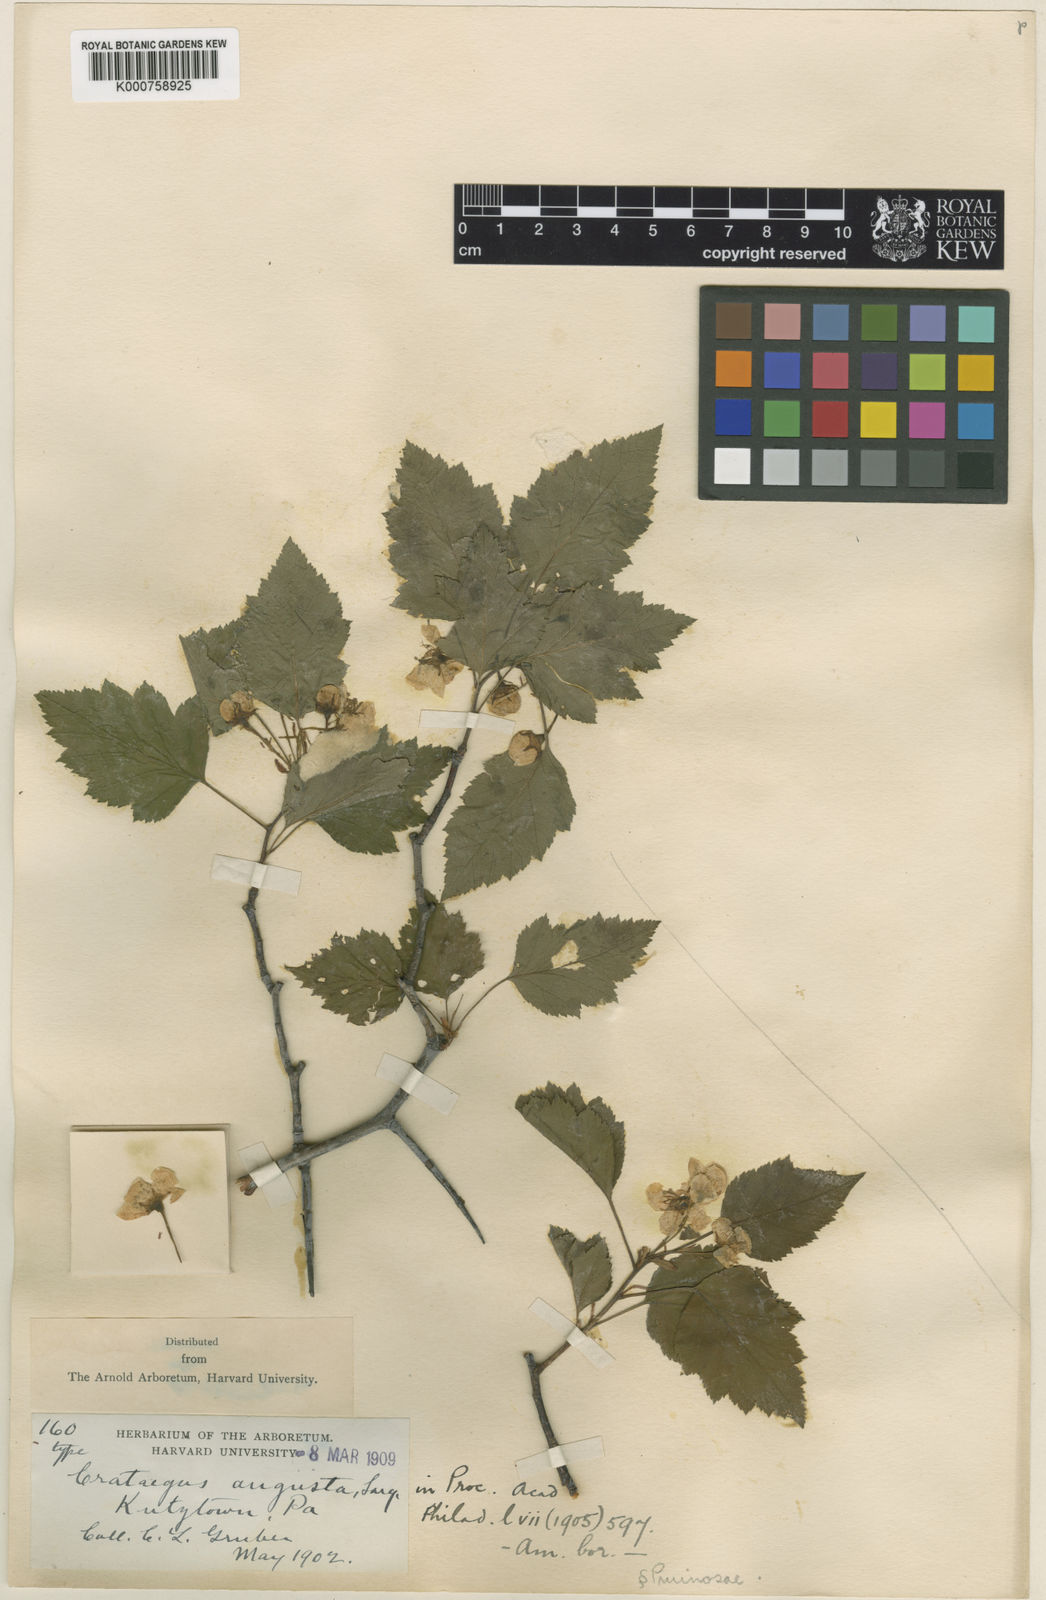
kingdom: Plantae
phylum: Tracheophyta
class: Magnoliopsida
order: Rosales
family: Rosaceae
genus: Crataegus
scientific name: Crataegus augusta
